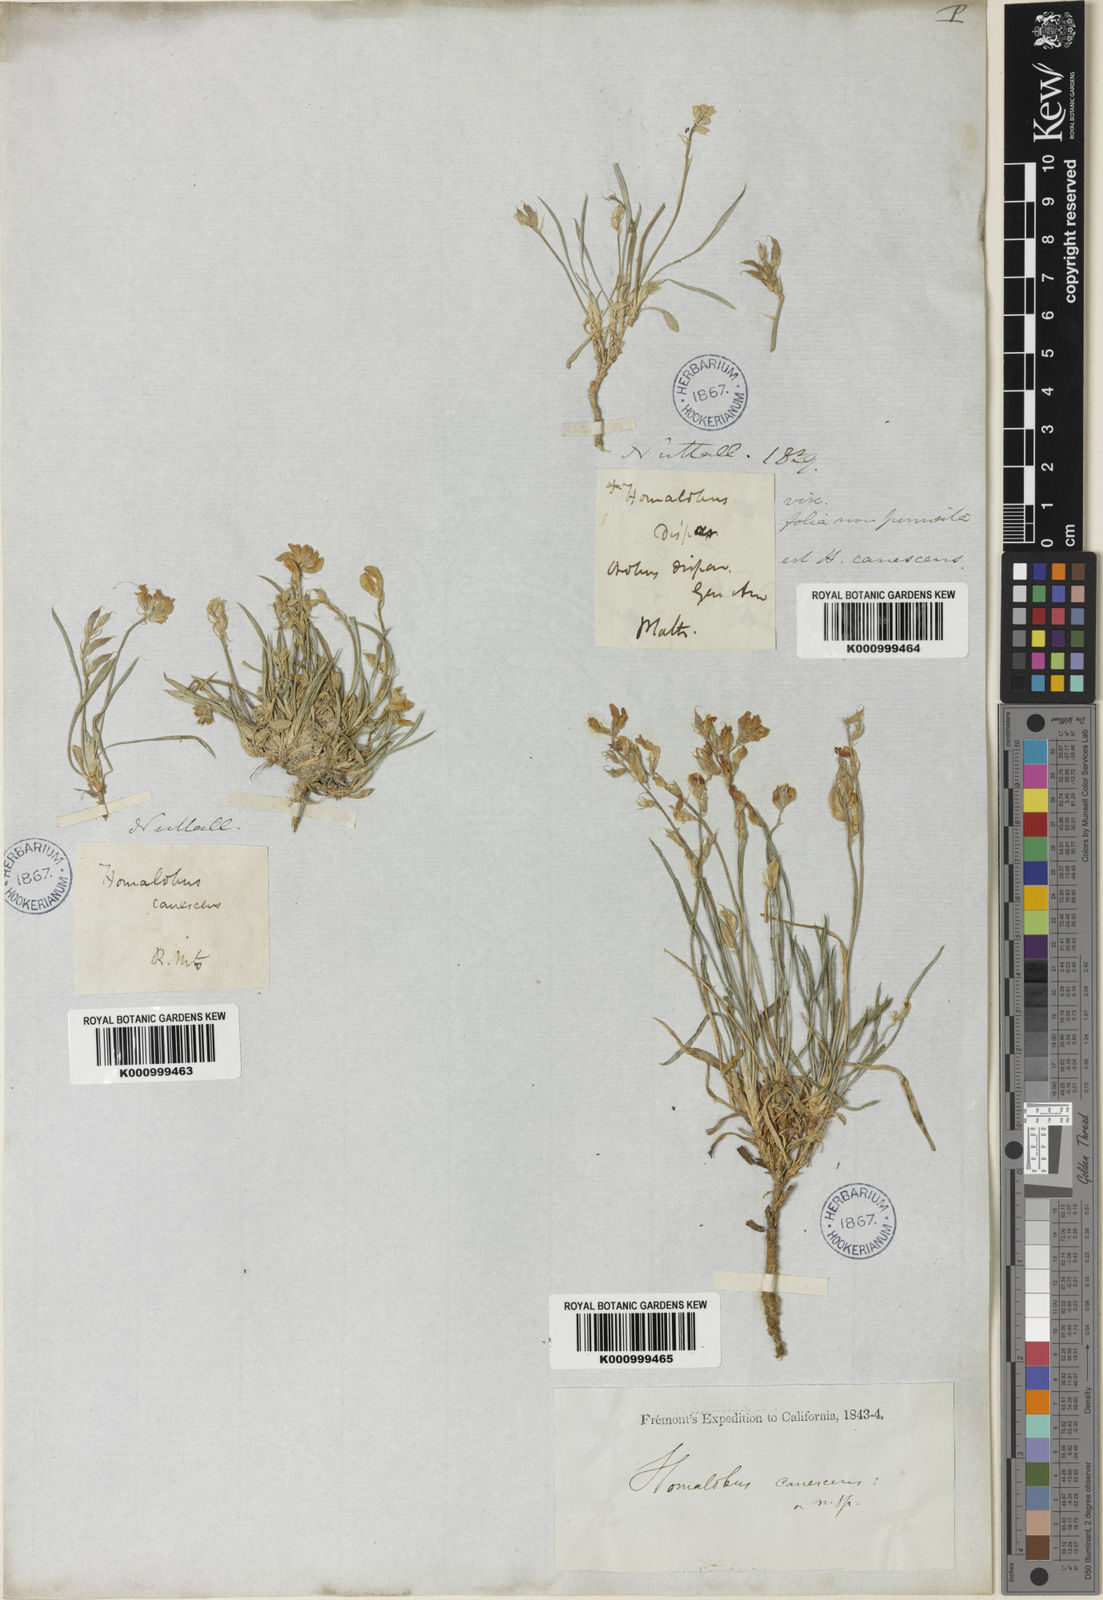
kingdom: Plantae
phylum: Tracheophyta
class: Magnoliopsida
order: Fabales
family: Fabaceae
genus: Oxytropis
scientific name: Oxytropis caespitosa
